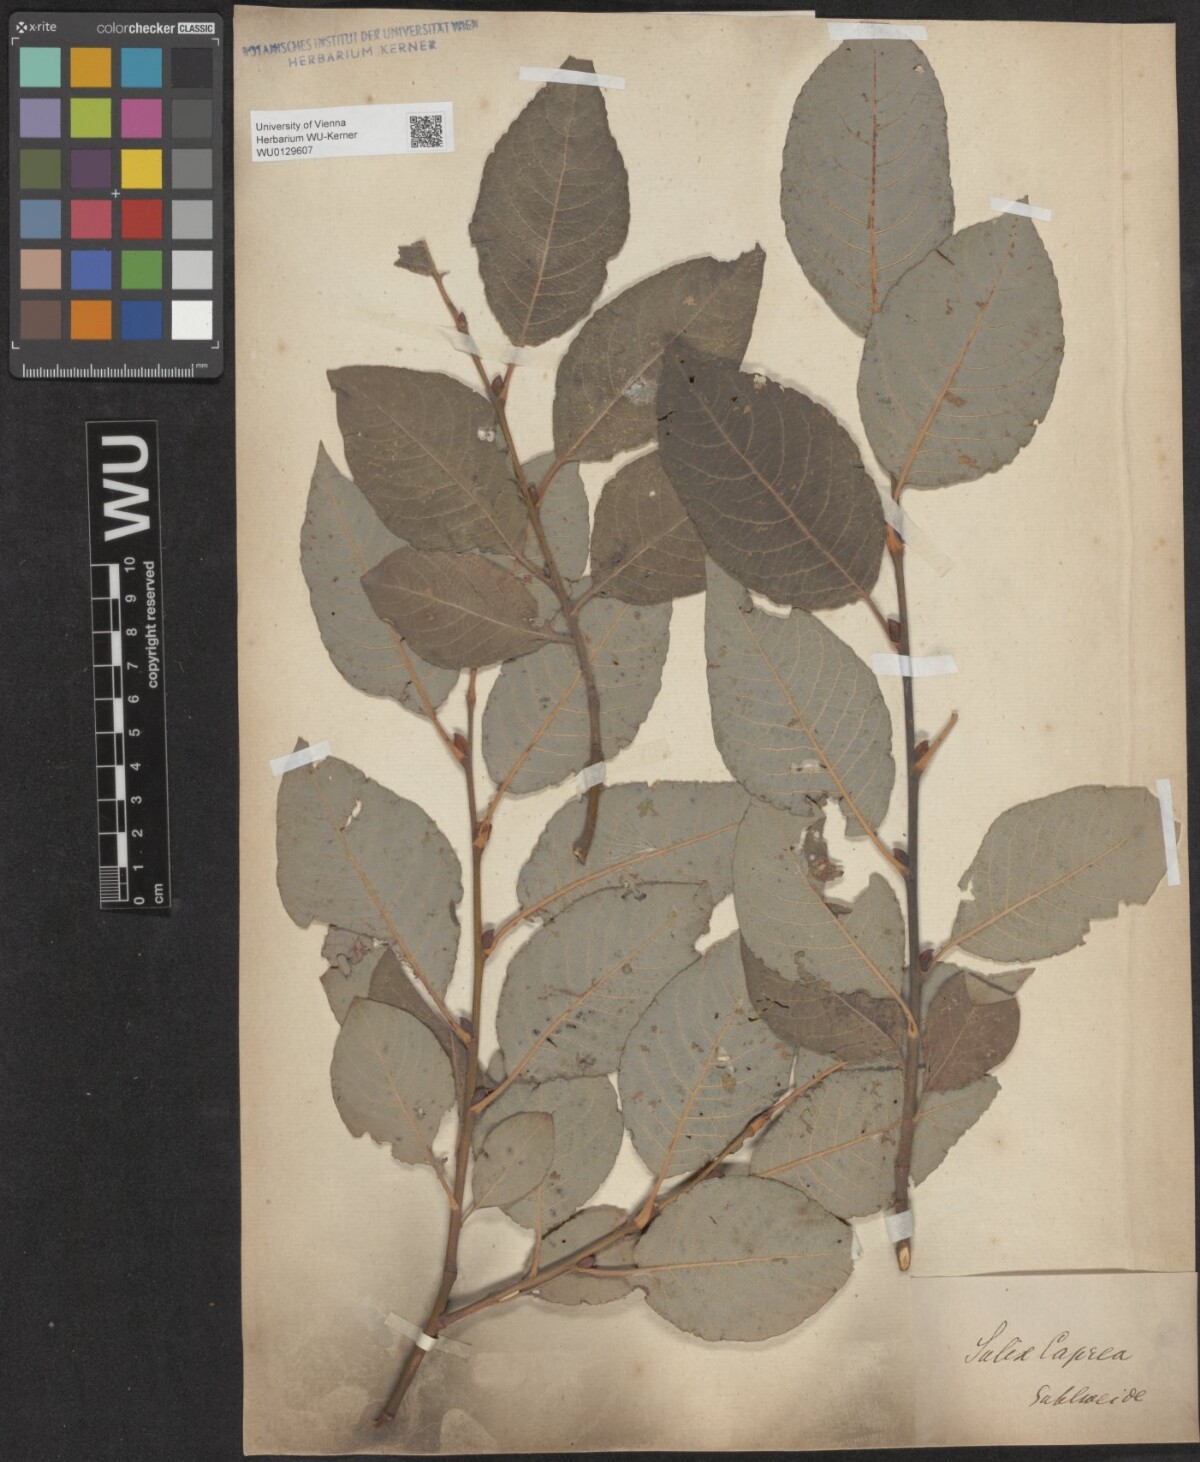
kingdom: Plantae
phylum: Tracheophyta
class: Magnoliopsida
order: Malpighiales
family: Salicaceae
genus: Salix
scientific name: Salix caprea
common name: Goat willow
